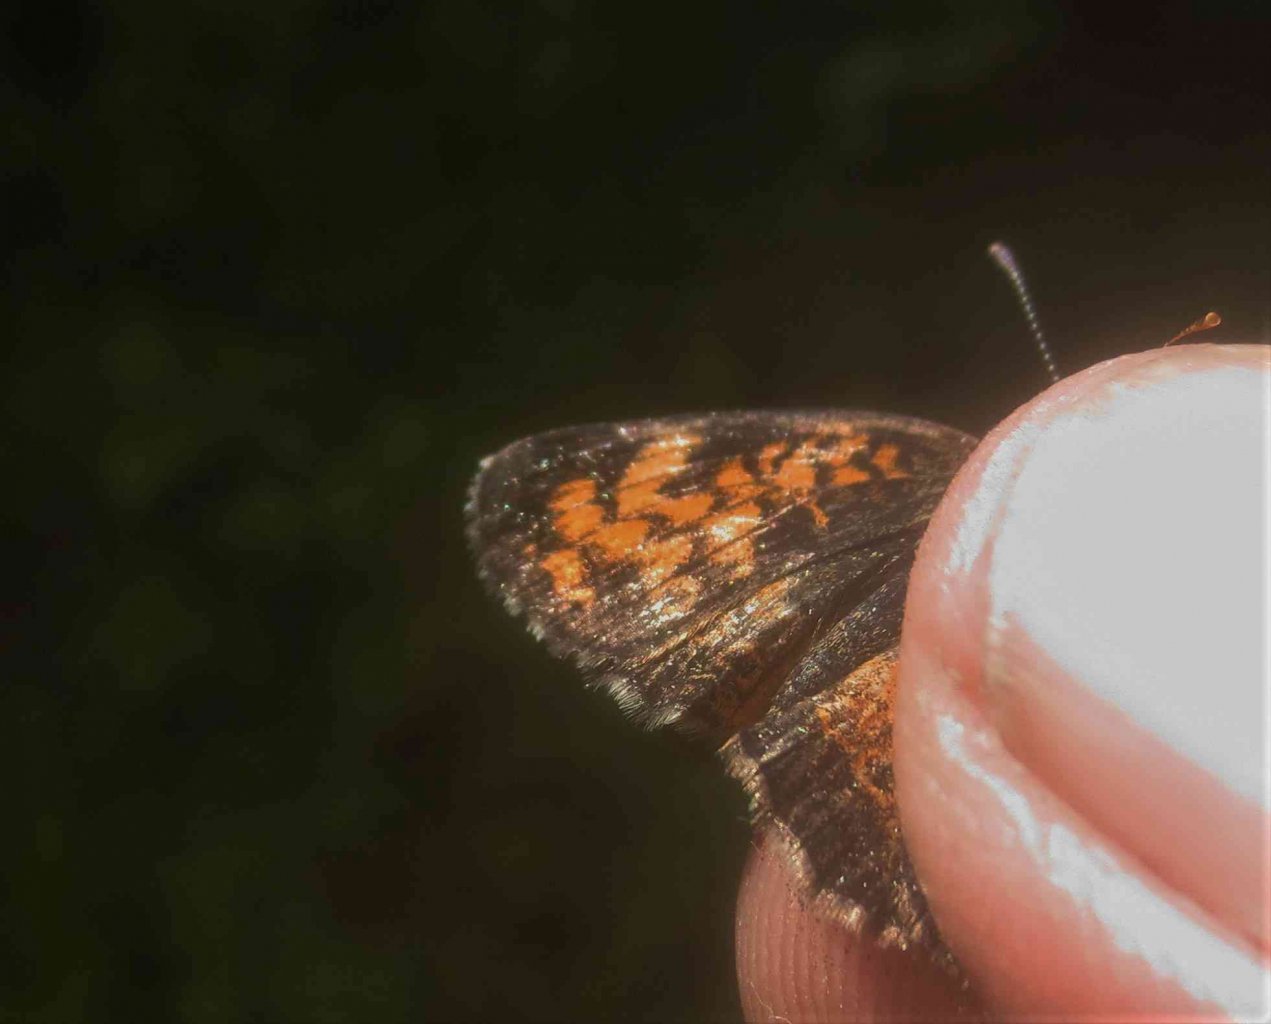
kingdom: Animalia
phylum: Arthropoda
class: Insecta
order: Lepidoptera
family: Nymphalidae
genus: Phyciodes
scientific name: Phyciodes
